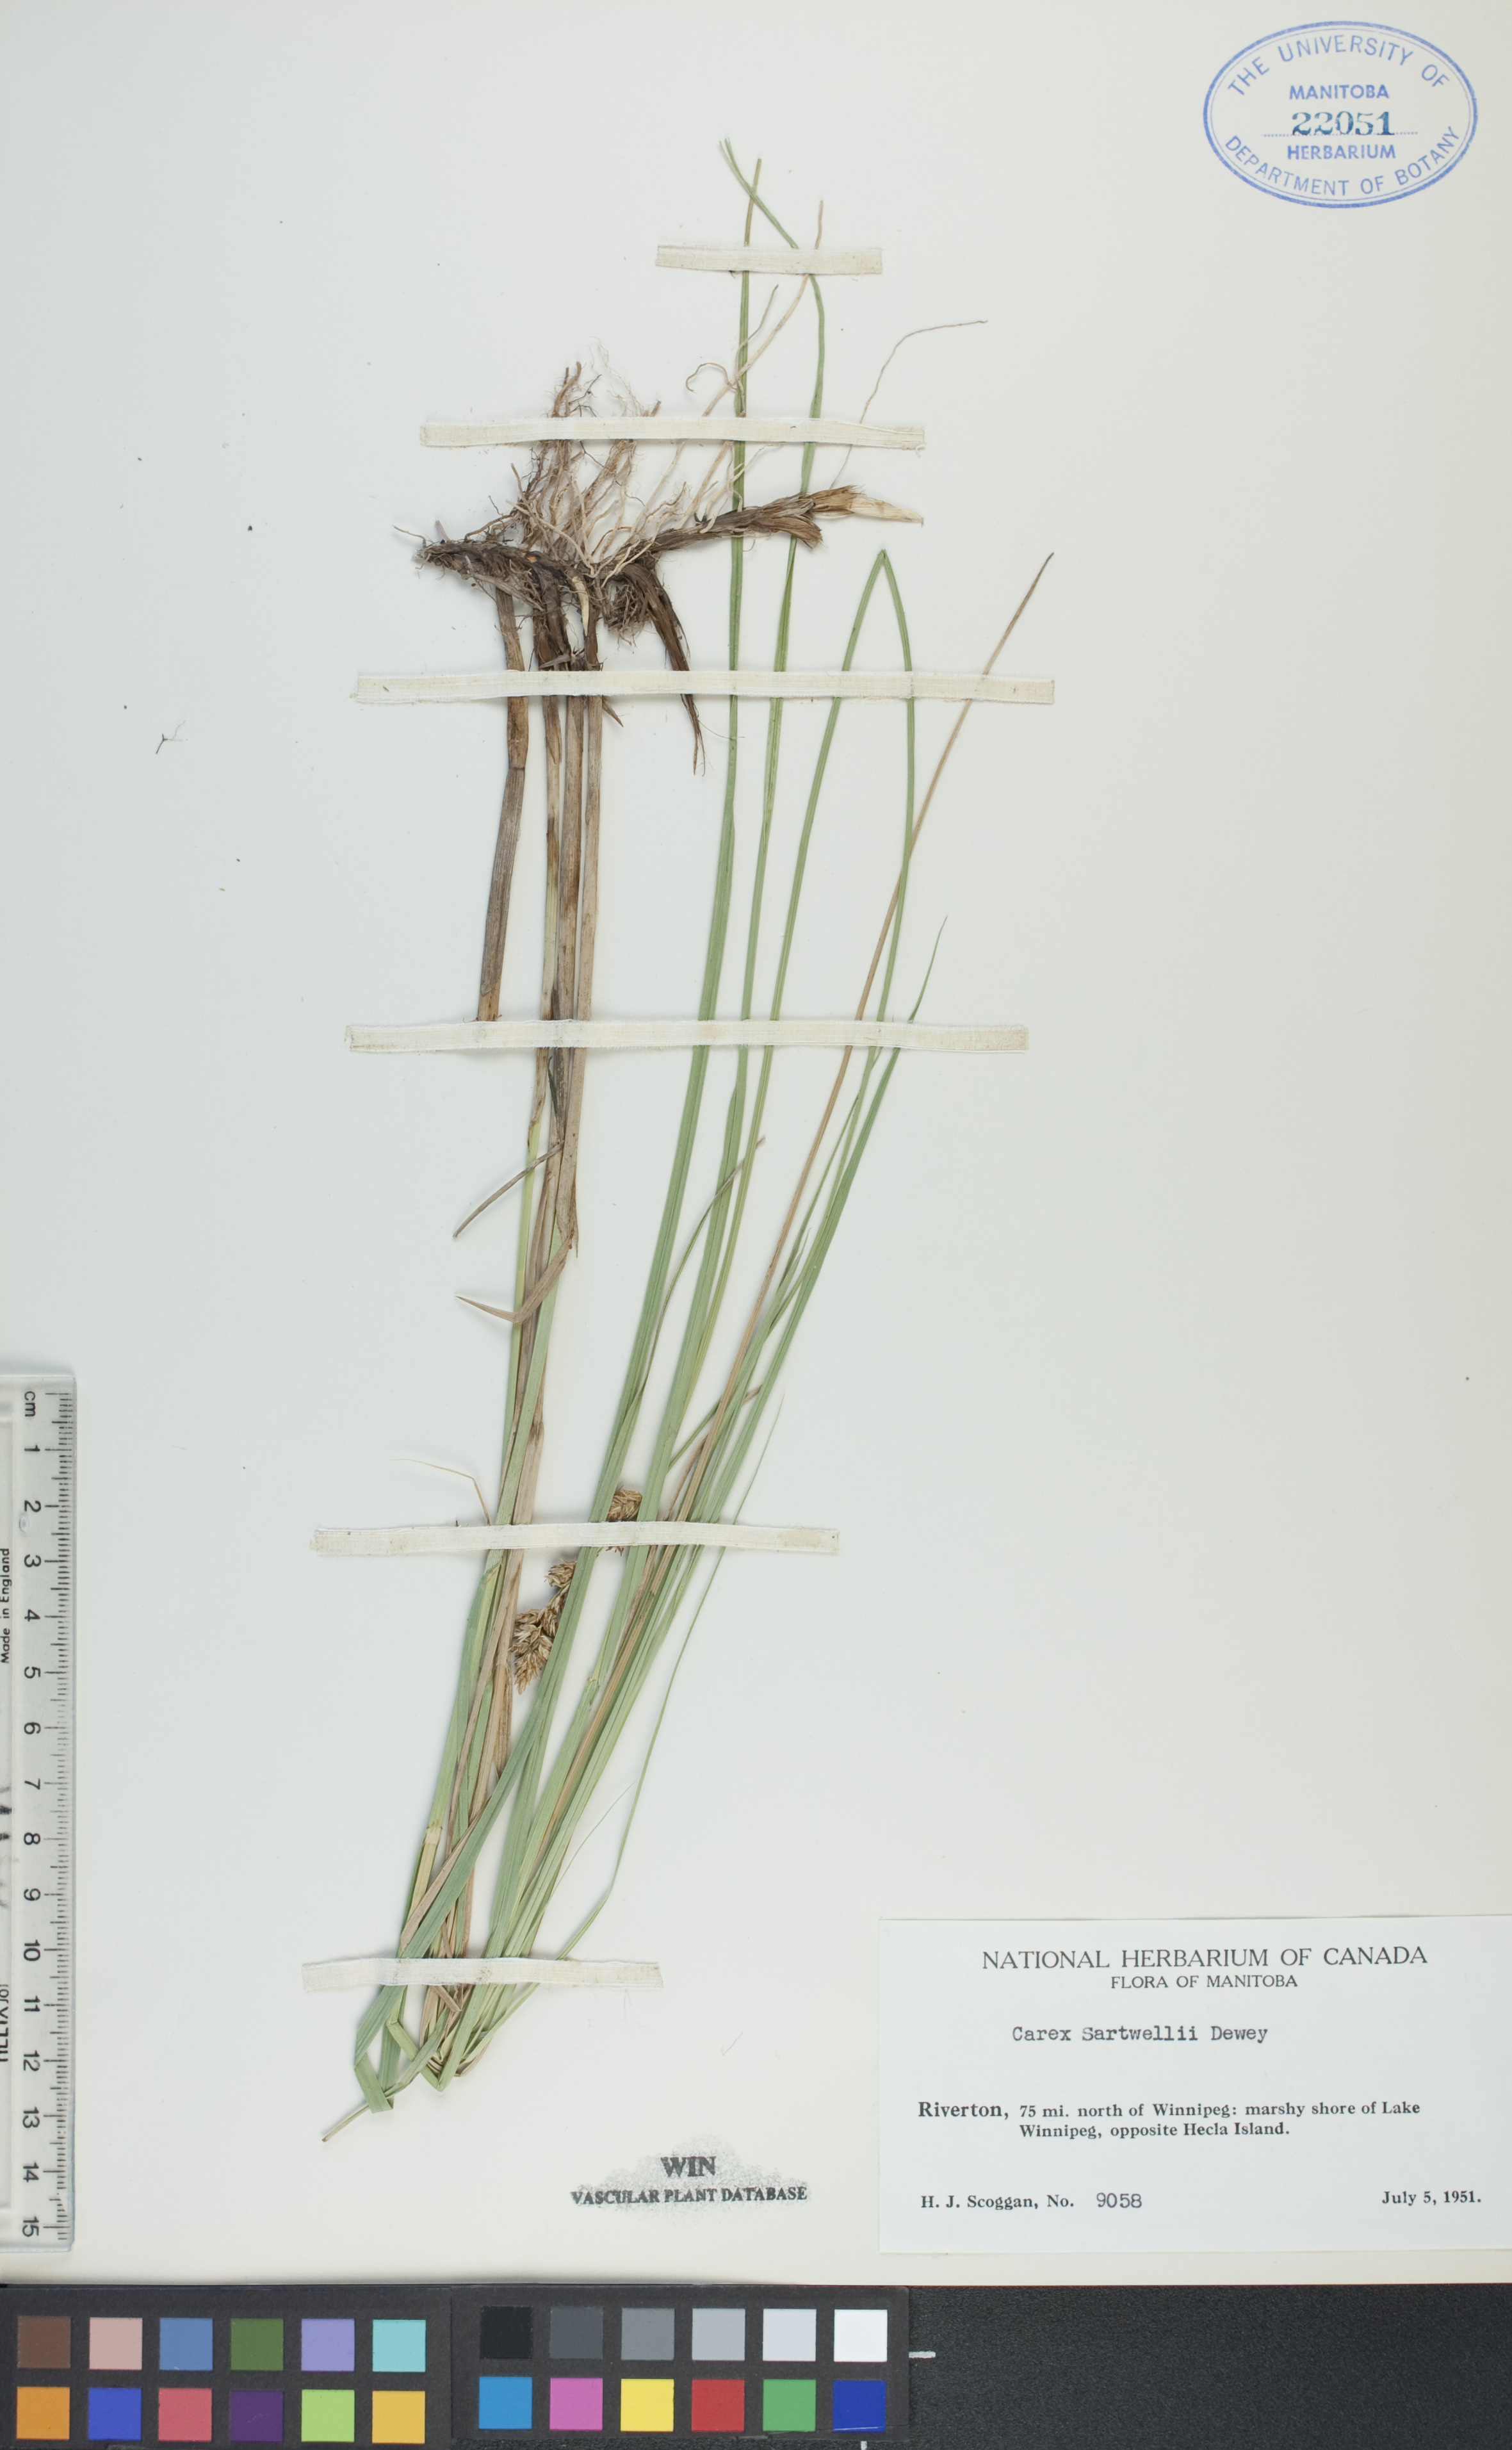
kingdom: Plantae
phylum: Tracheophyta
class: Liliopsida
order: Poales
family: Cyperaceae
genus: Carex
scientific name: Carex sartwellii
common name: Sartwell's sedge
